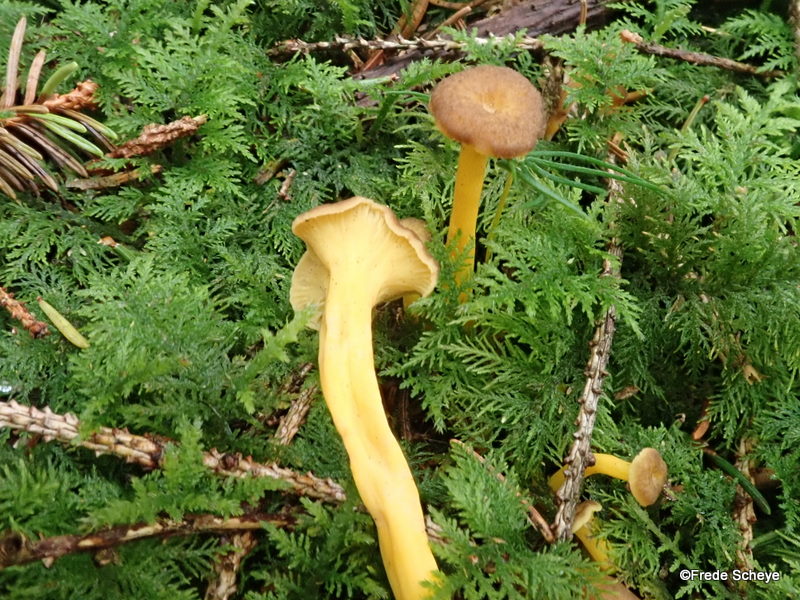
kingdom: Fungi
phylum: Basidiomycota
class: Agaricomycetes
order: Cantharellales
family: Hydnaceae
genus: Craterellus
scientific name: Craterellus lutescens
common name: gylden kantarel
